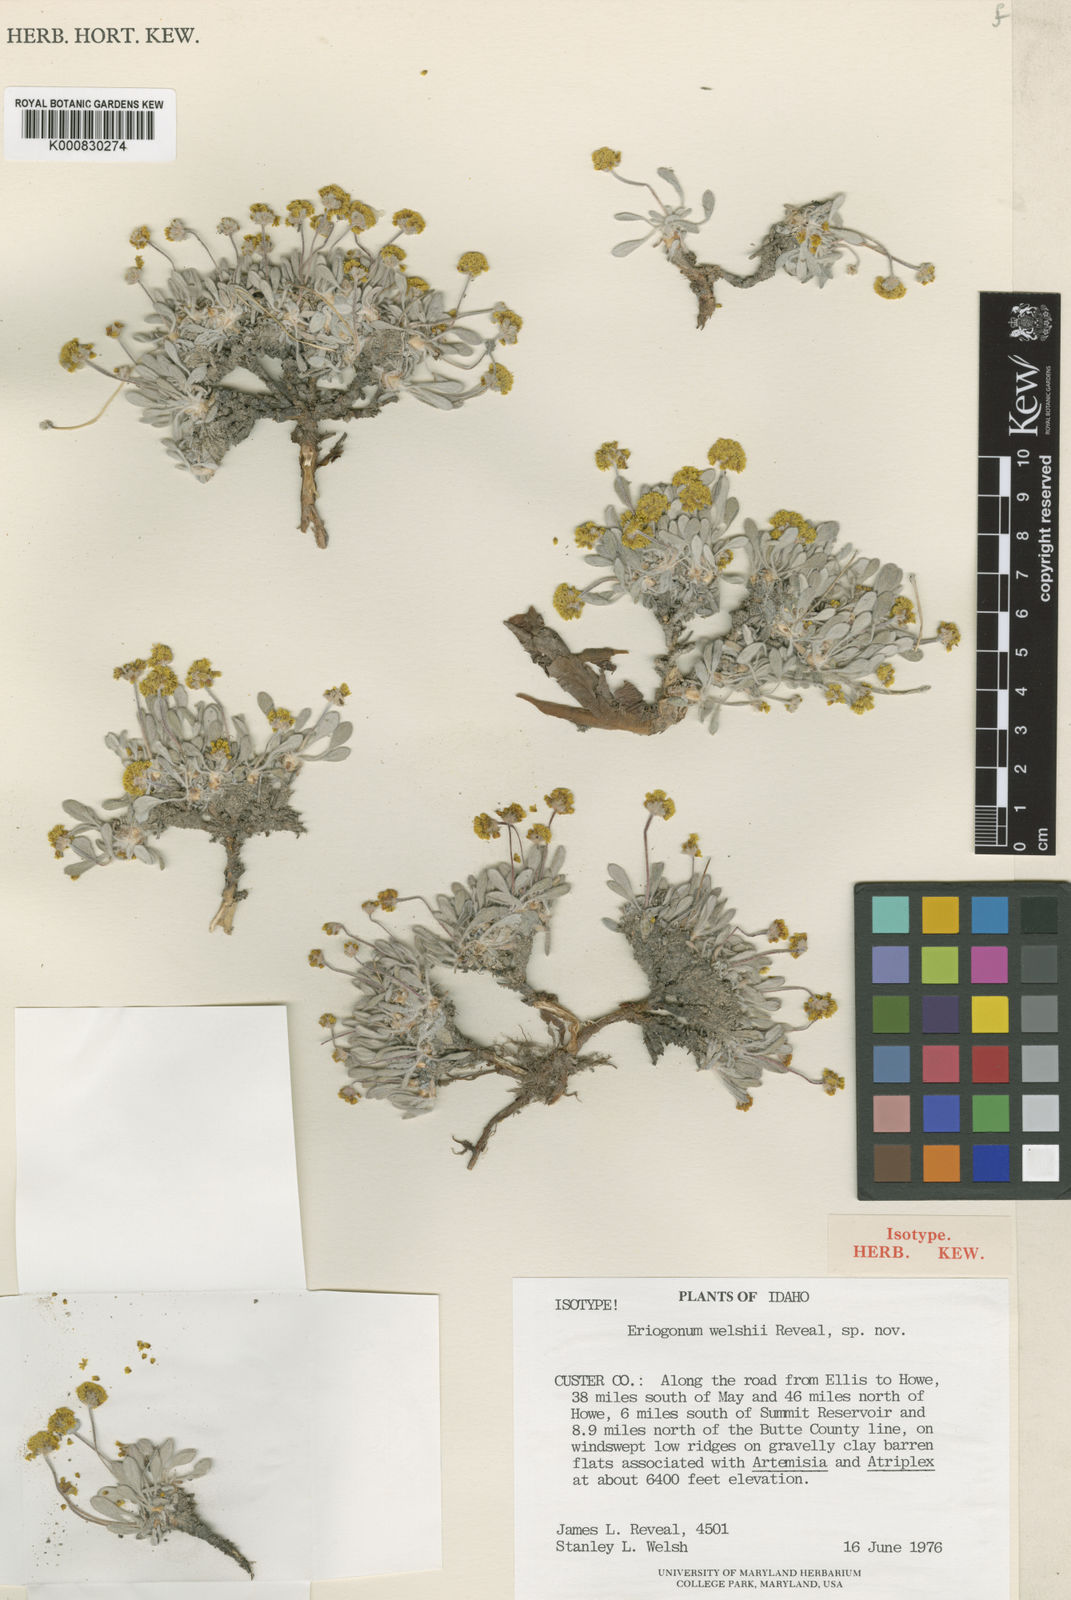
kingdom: Plantae
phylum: Tracheophyta
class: Magnoliopsida
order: Caryophyllales
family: Polygonaceae
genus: Eriogonum
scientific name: Eriogonum
